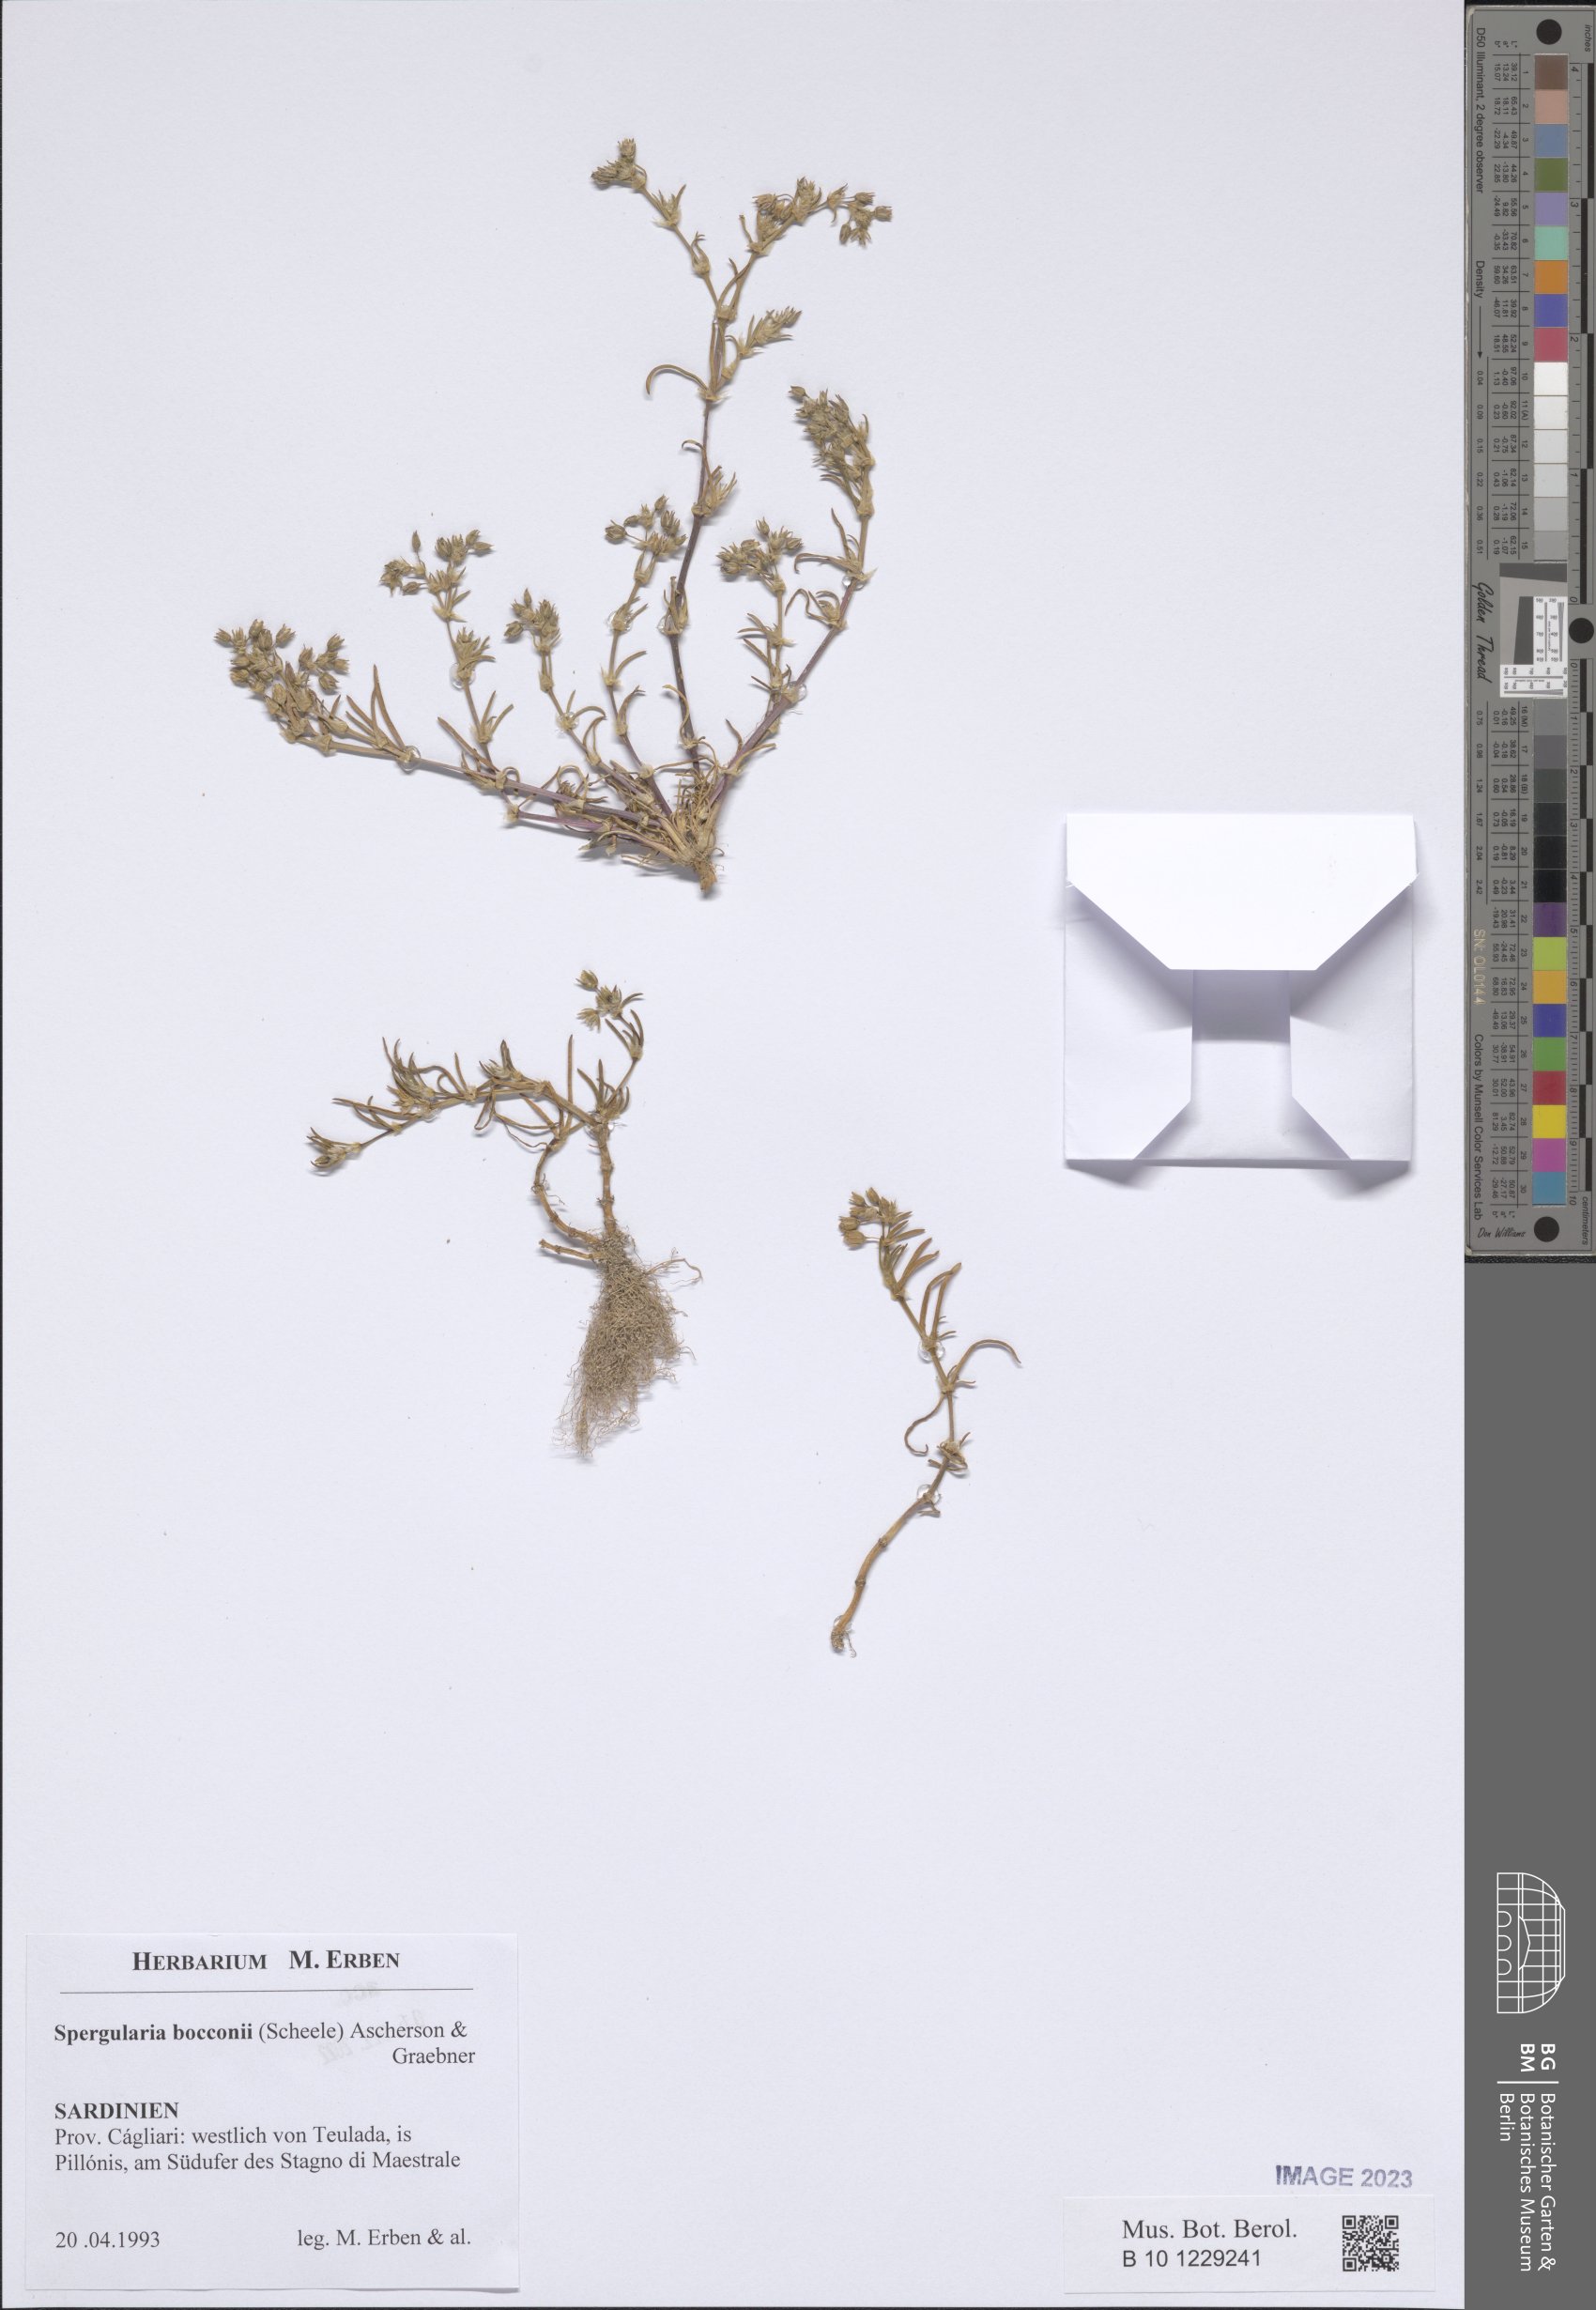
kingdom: Plantae
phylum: Tracheophyta
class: Magnoliopsida
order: Caryophyllales
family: Caryophyllaceae
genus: Spergularia
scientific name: Spergularia bocconei
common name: Greek sea-spurrey
